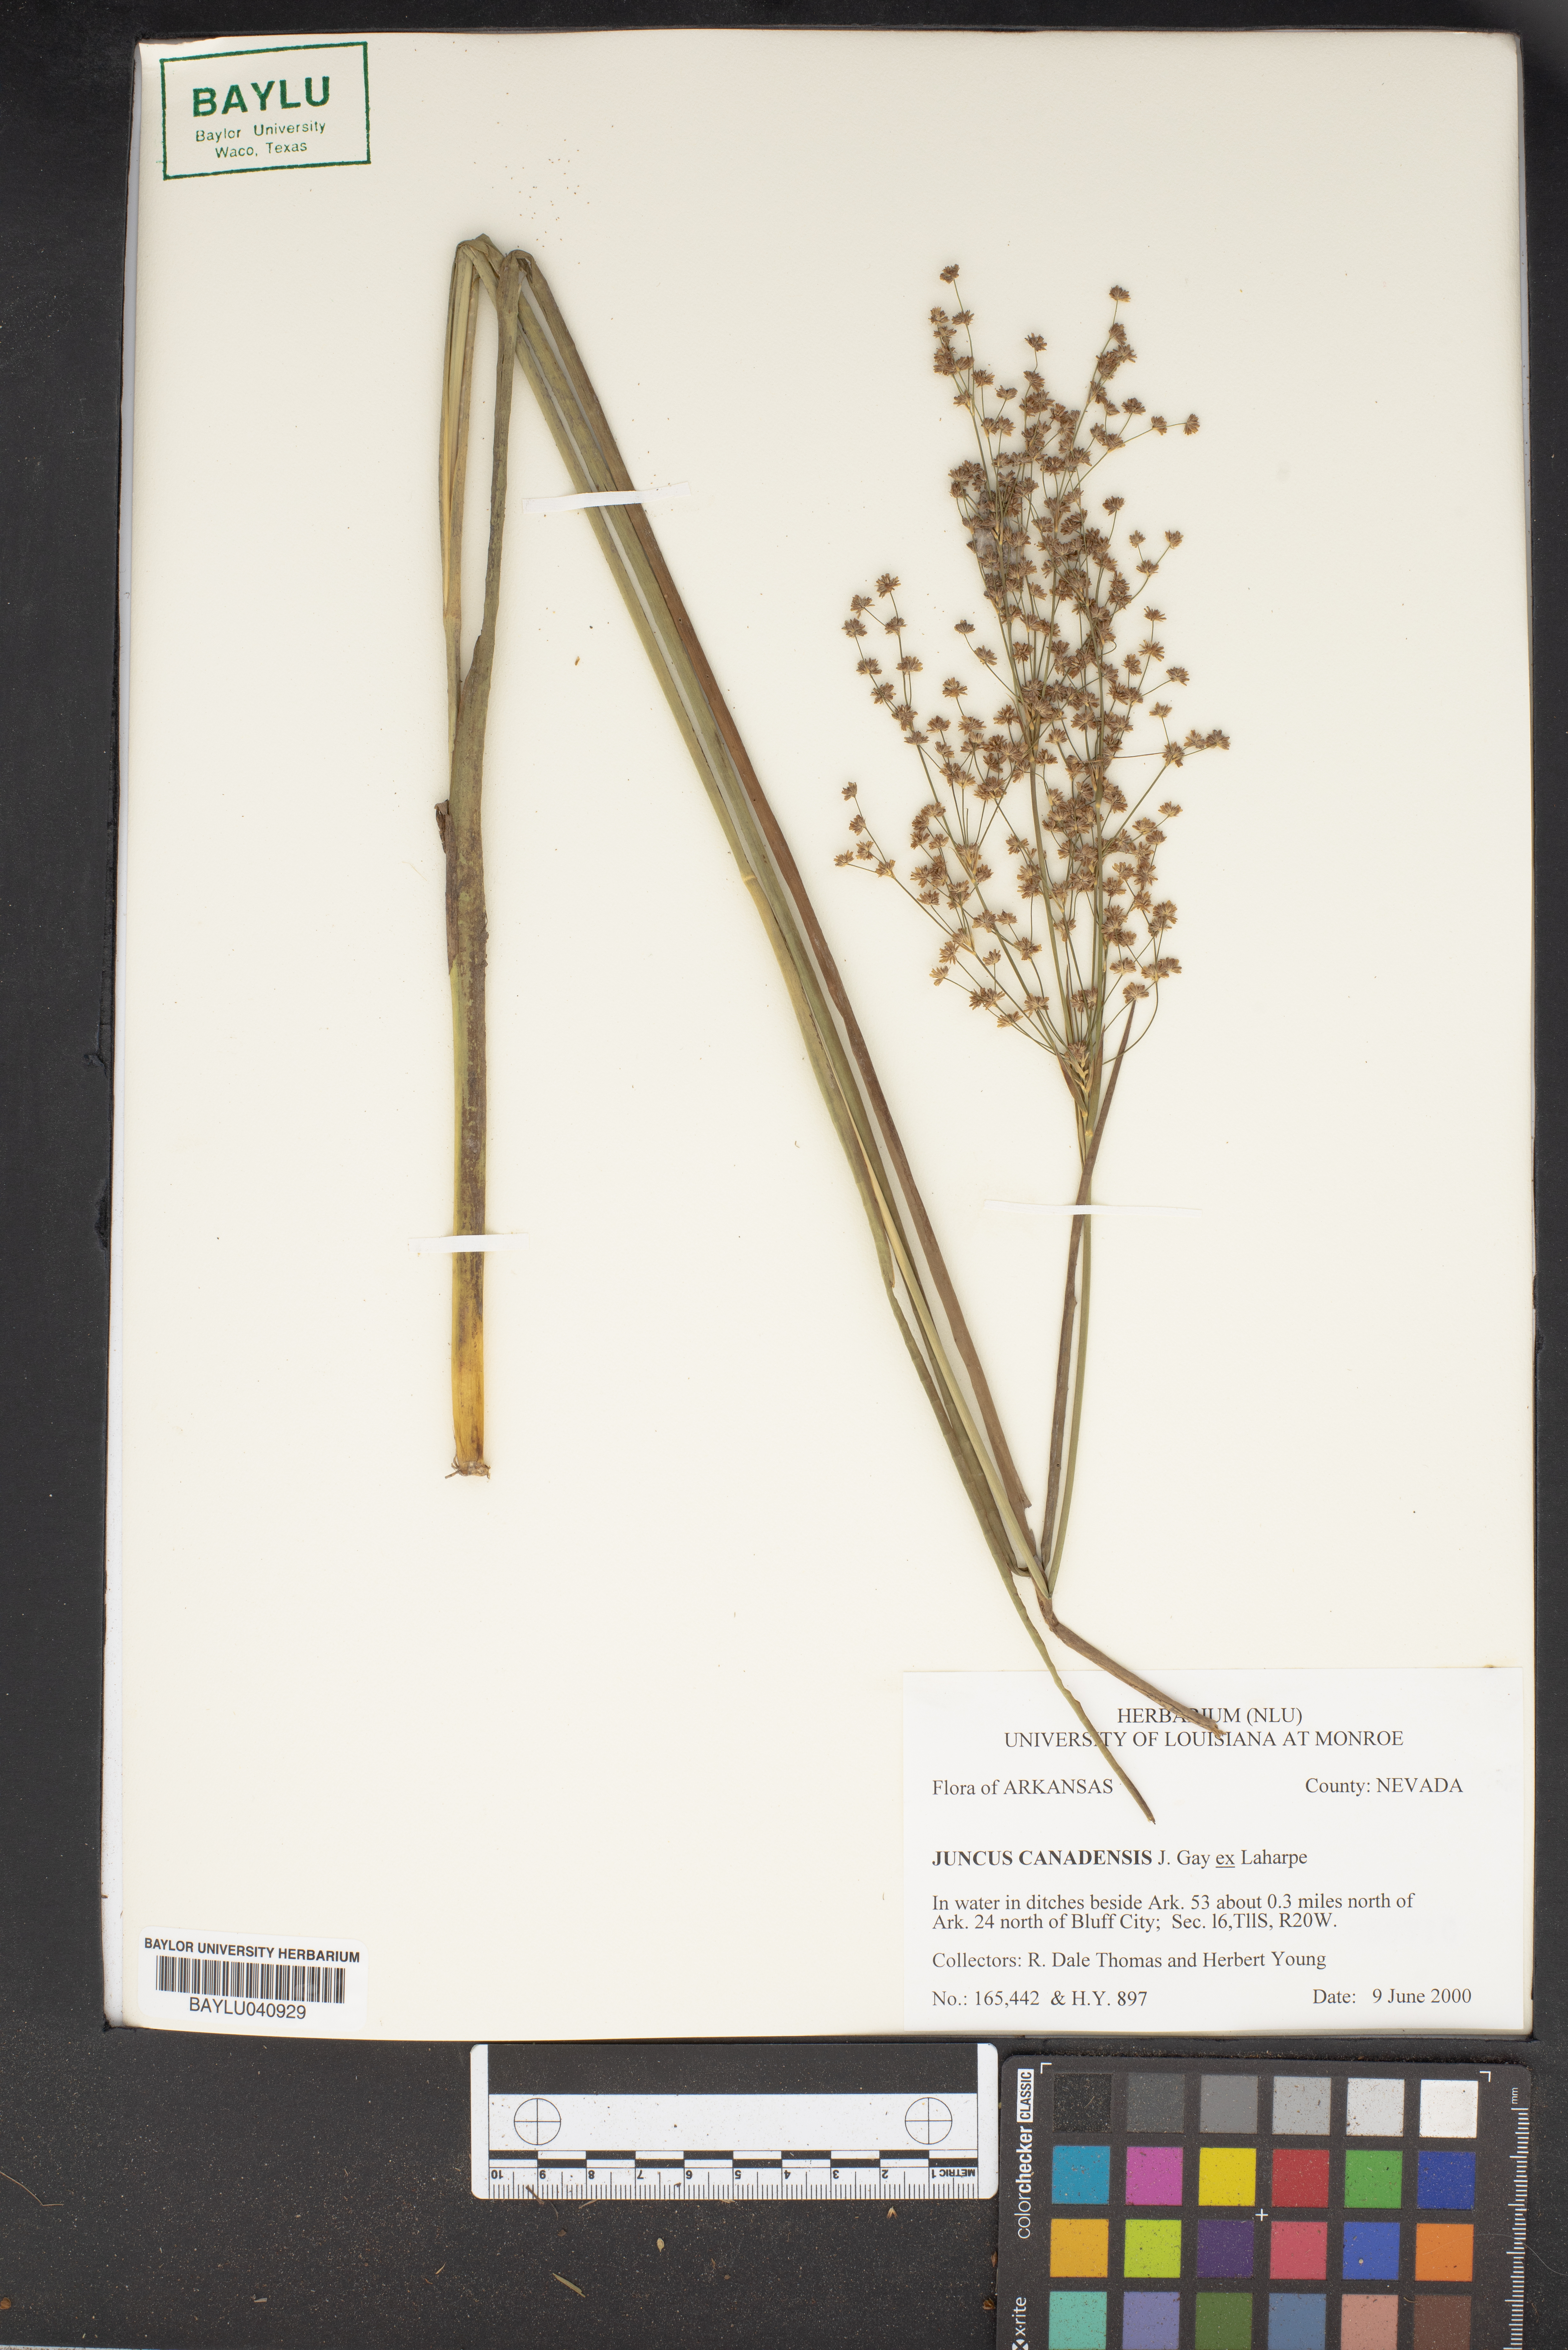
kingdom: Plantae
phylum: Tracheophyta
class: Liliopsida
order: Poales
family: Juncaceae
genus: Juncus
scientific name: Juncus canadensis
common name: Canada rush
